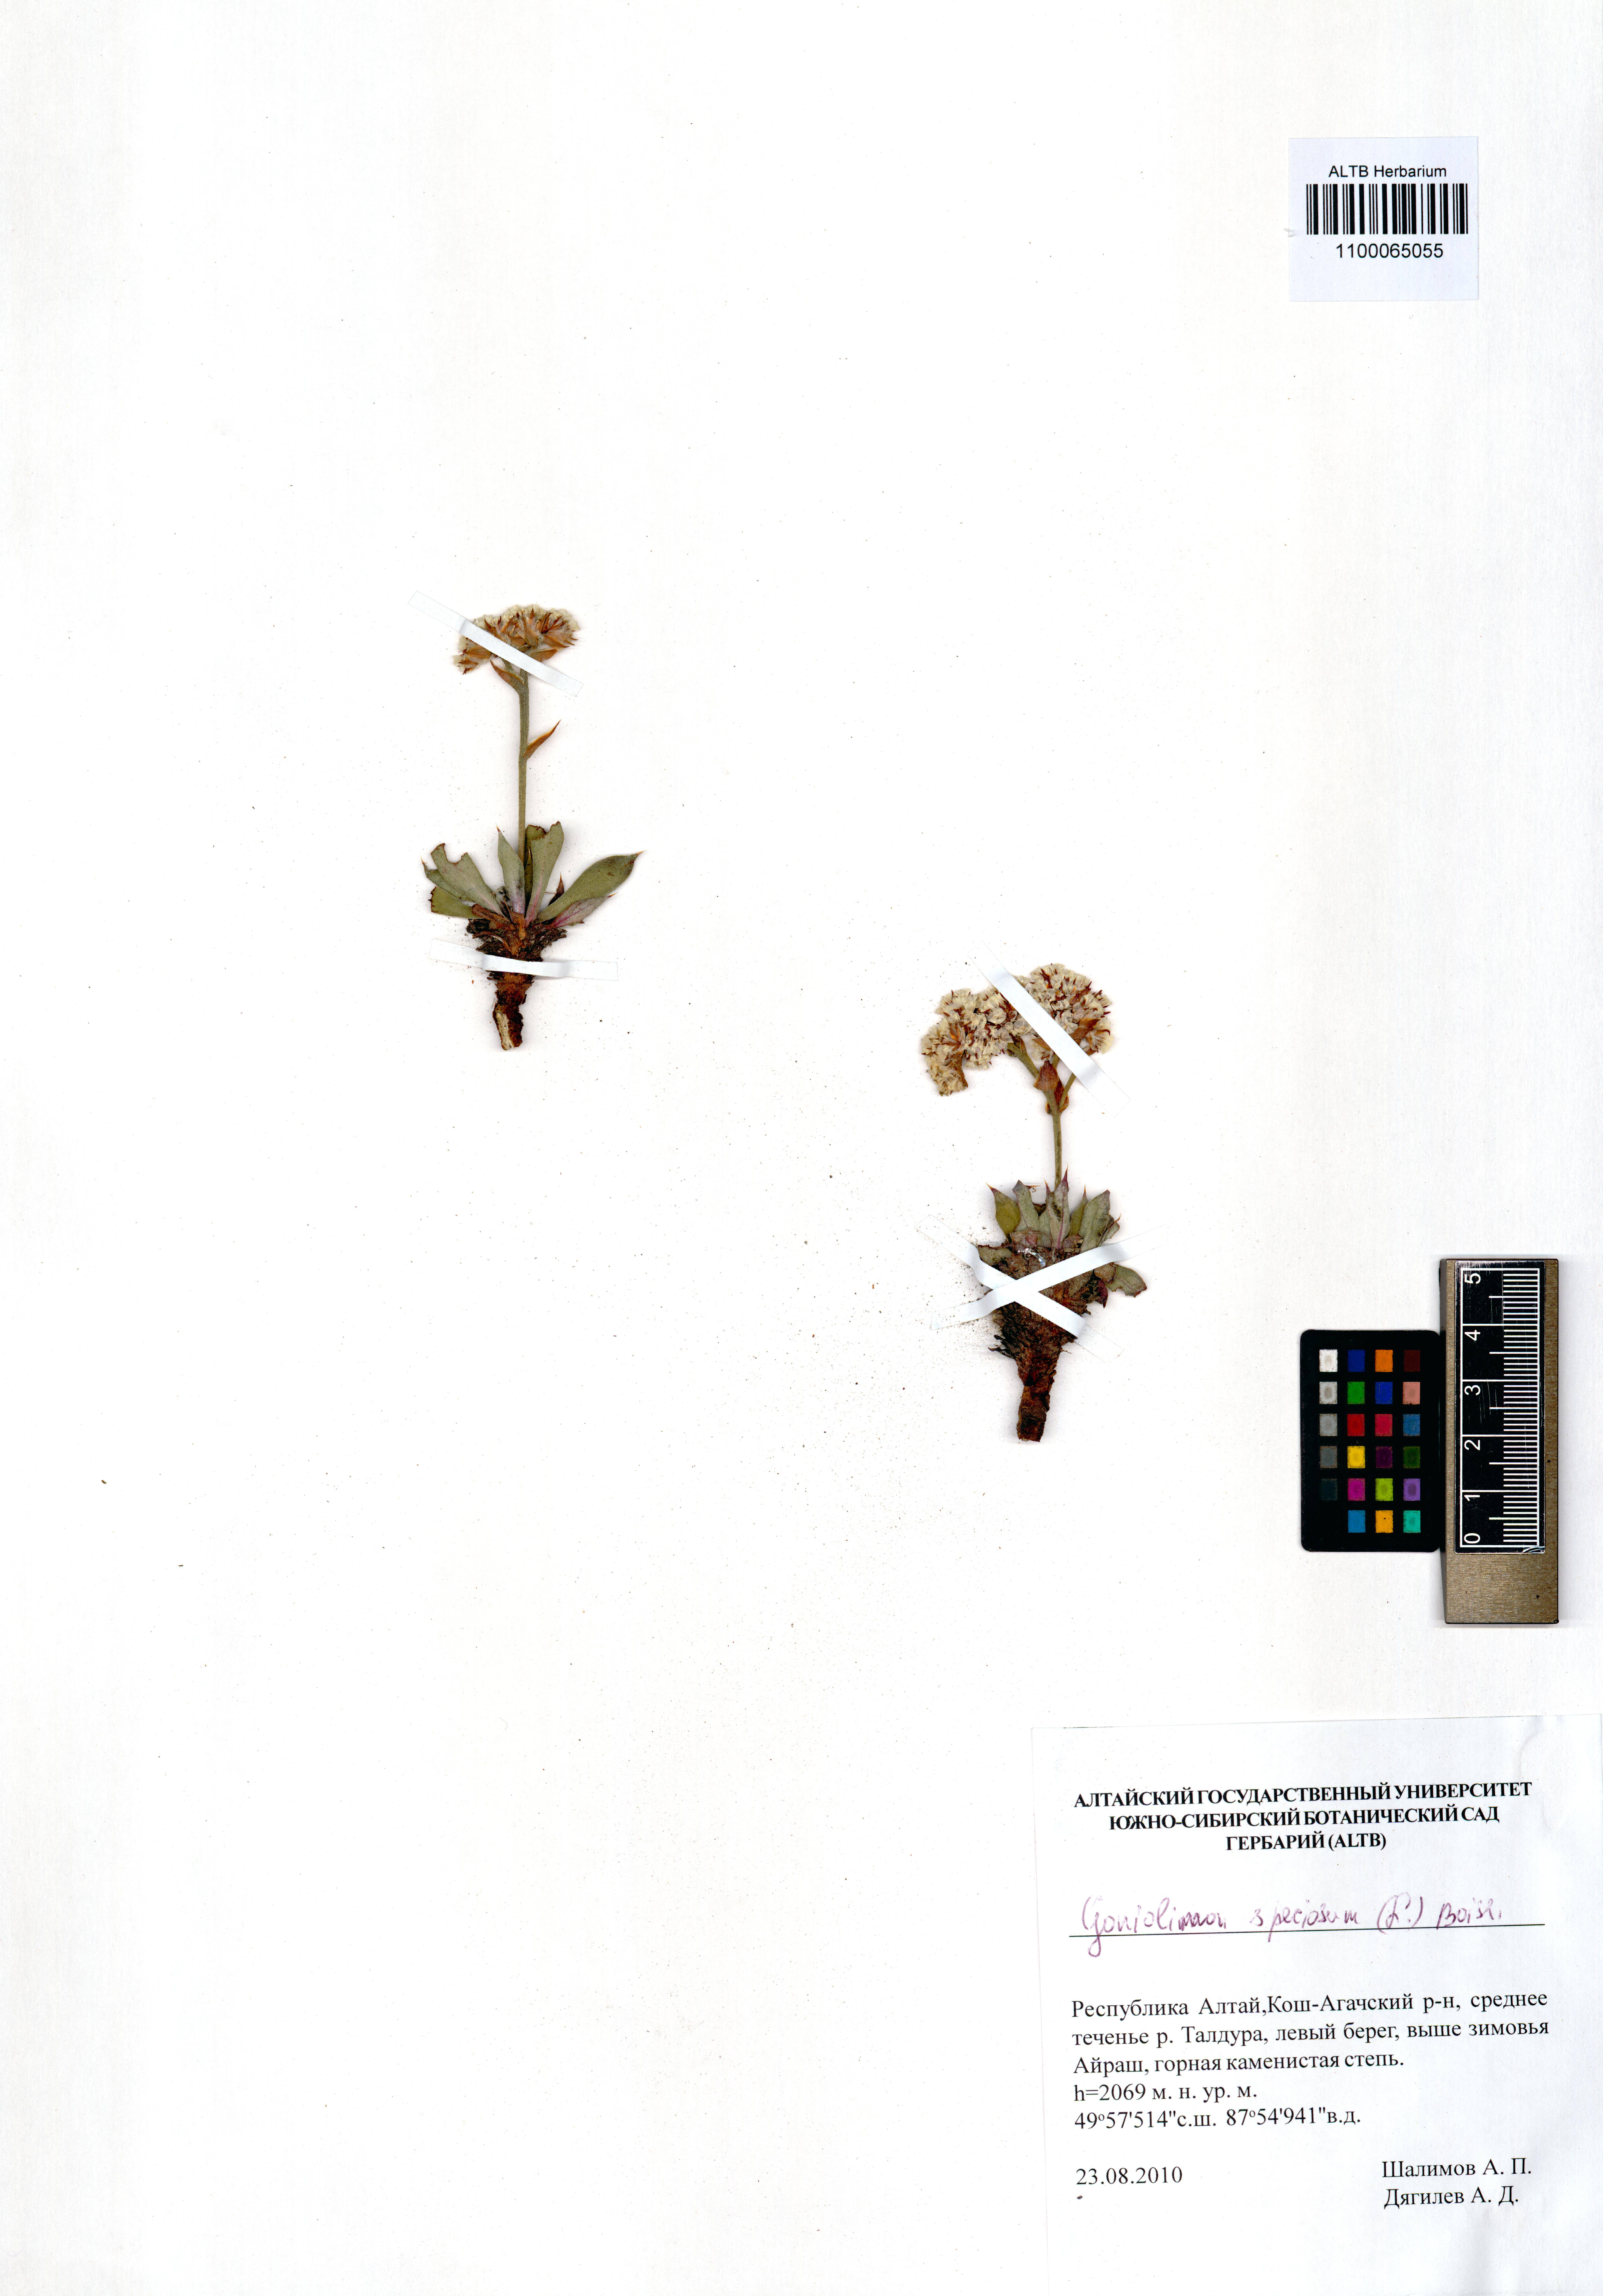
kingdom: Plantae
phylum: Tracheophyta
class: Magnoliopsida
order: Caryophyllales
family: Plumbaginaceae
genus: Goniolimon
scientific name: Goniolimon speciosum
